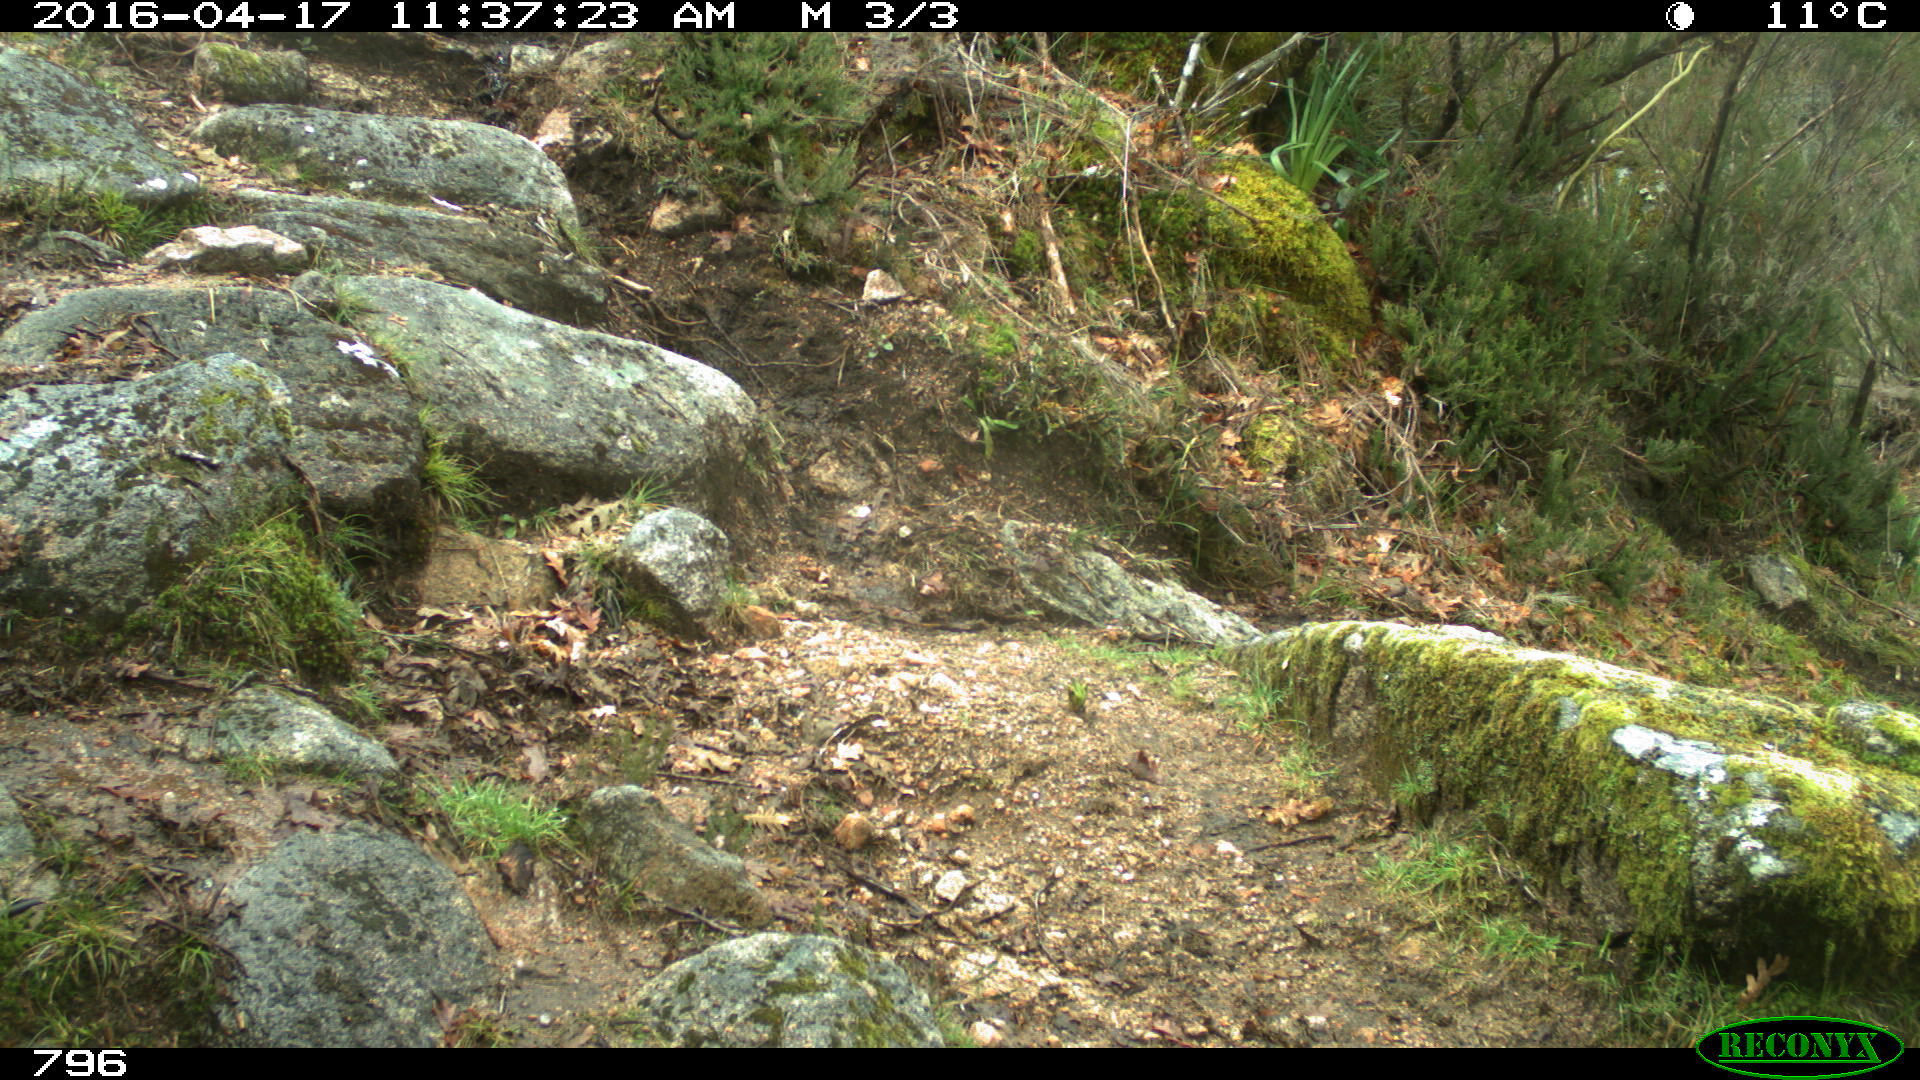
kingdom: Animalia
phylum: Chordata
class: Mammalia
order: Artiodactyla
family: Bovidae
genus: Bos
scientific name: Bos taurus
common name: Domesticated cattle
